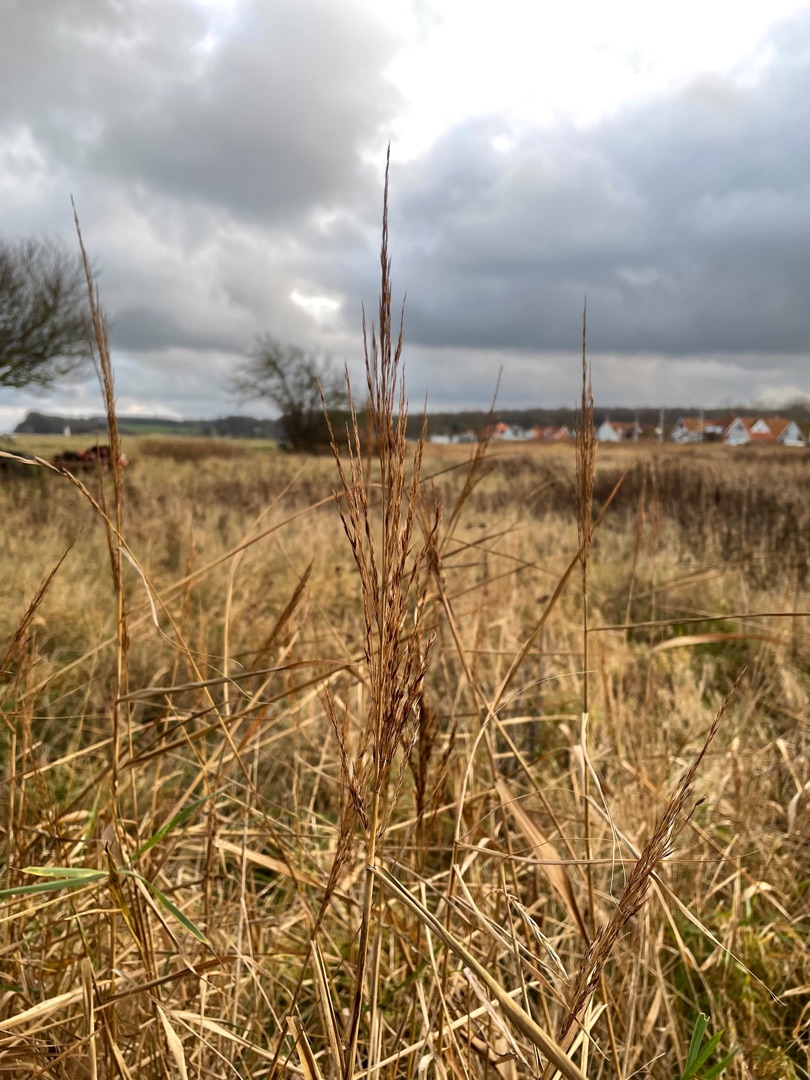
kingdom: Plantae
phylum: Tracheophyta
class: Liliopsida
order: Poales
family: Poaceae
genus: Phragmites
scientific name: Phragmites australis
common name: Tagrør
